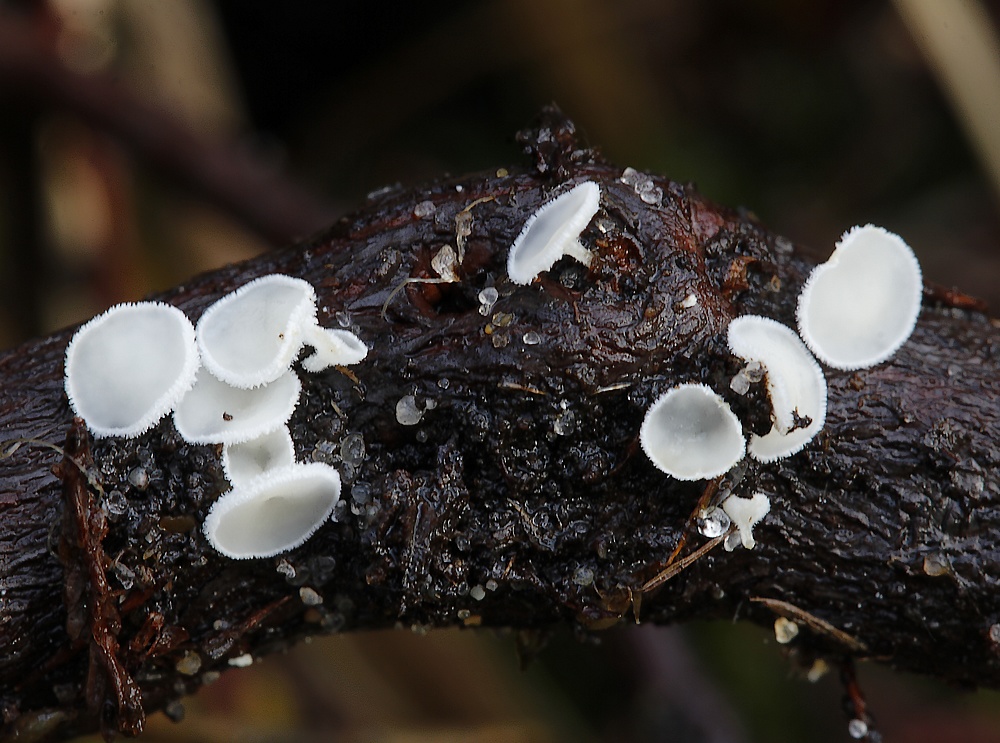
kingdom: Fungi
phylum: Ascomycota
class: Leotiomycetes
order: Helotiales
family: Lachnaceae
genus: Lachnum
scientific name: Lachnum virgineum
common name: jomfru-frynseskive
